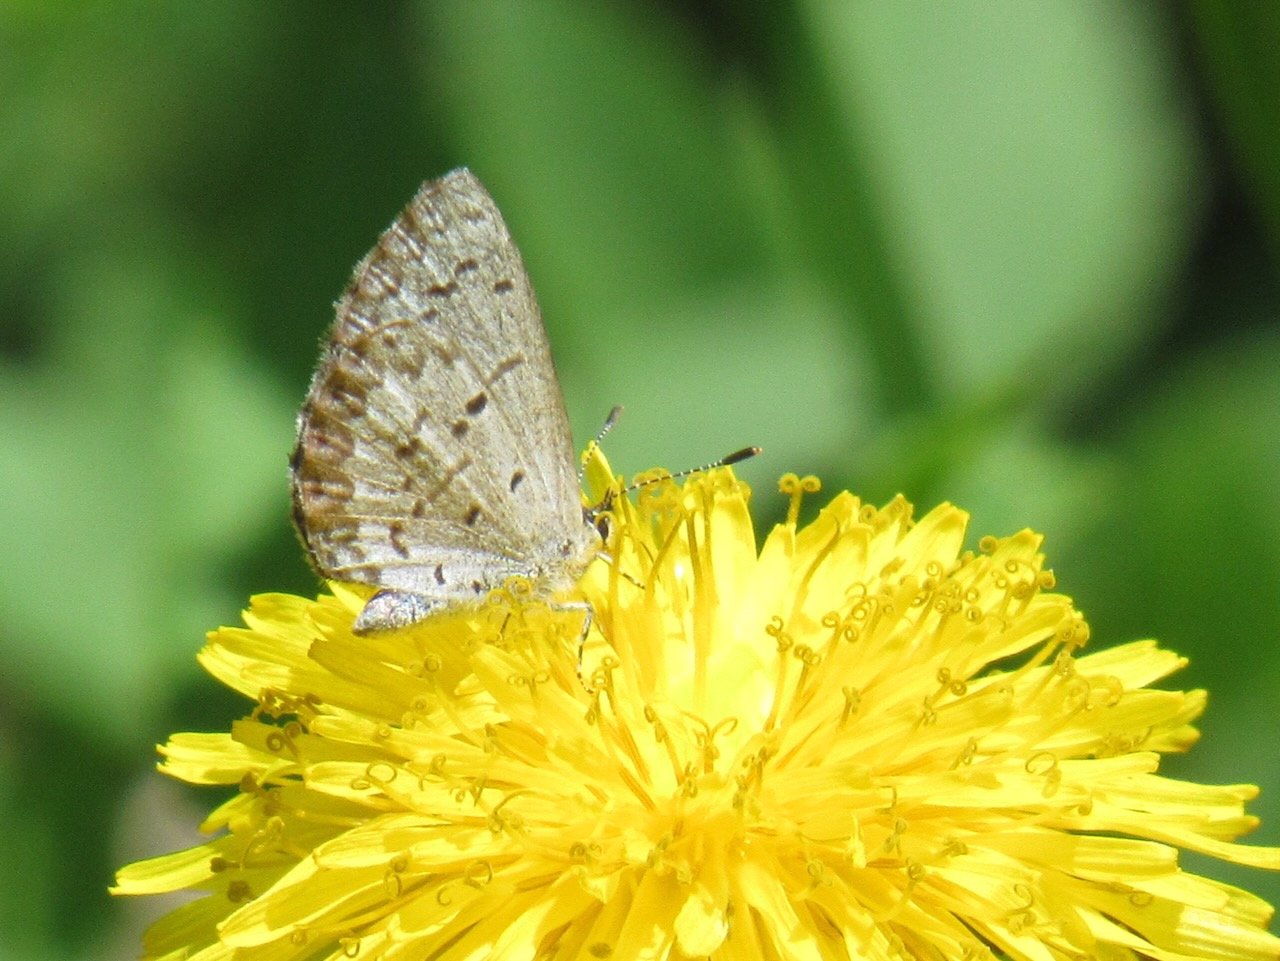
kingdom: Animalia
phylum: Arthropoda
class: Insecta
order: Lepidoptera
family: Lycaenidae
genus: Celastrina
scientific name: Celastrina lucia
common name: Northern Spring Azure
